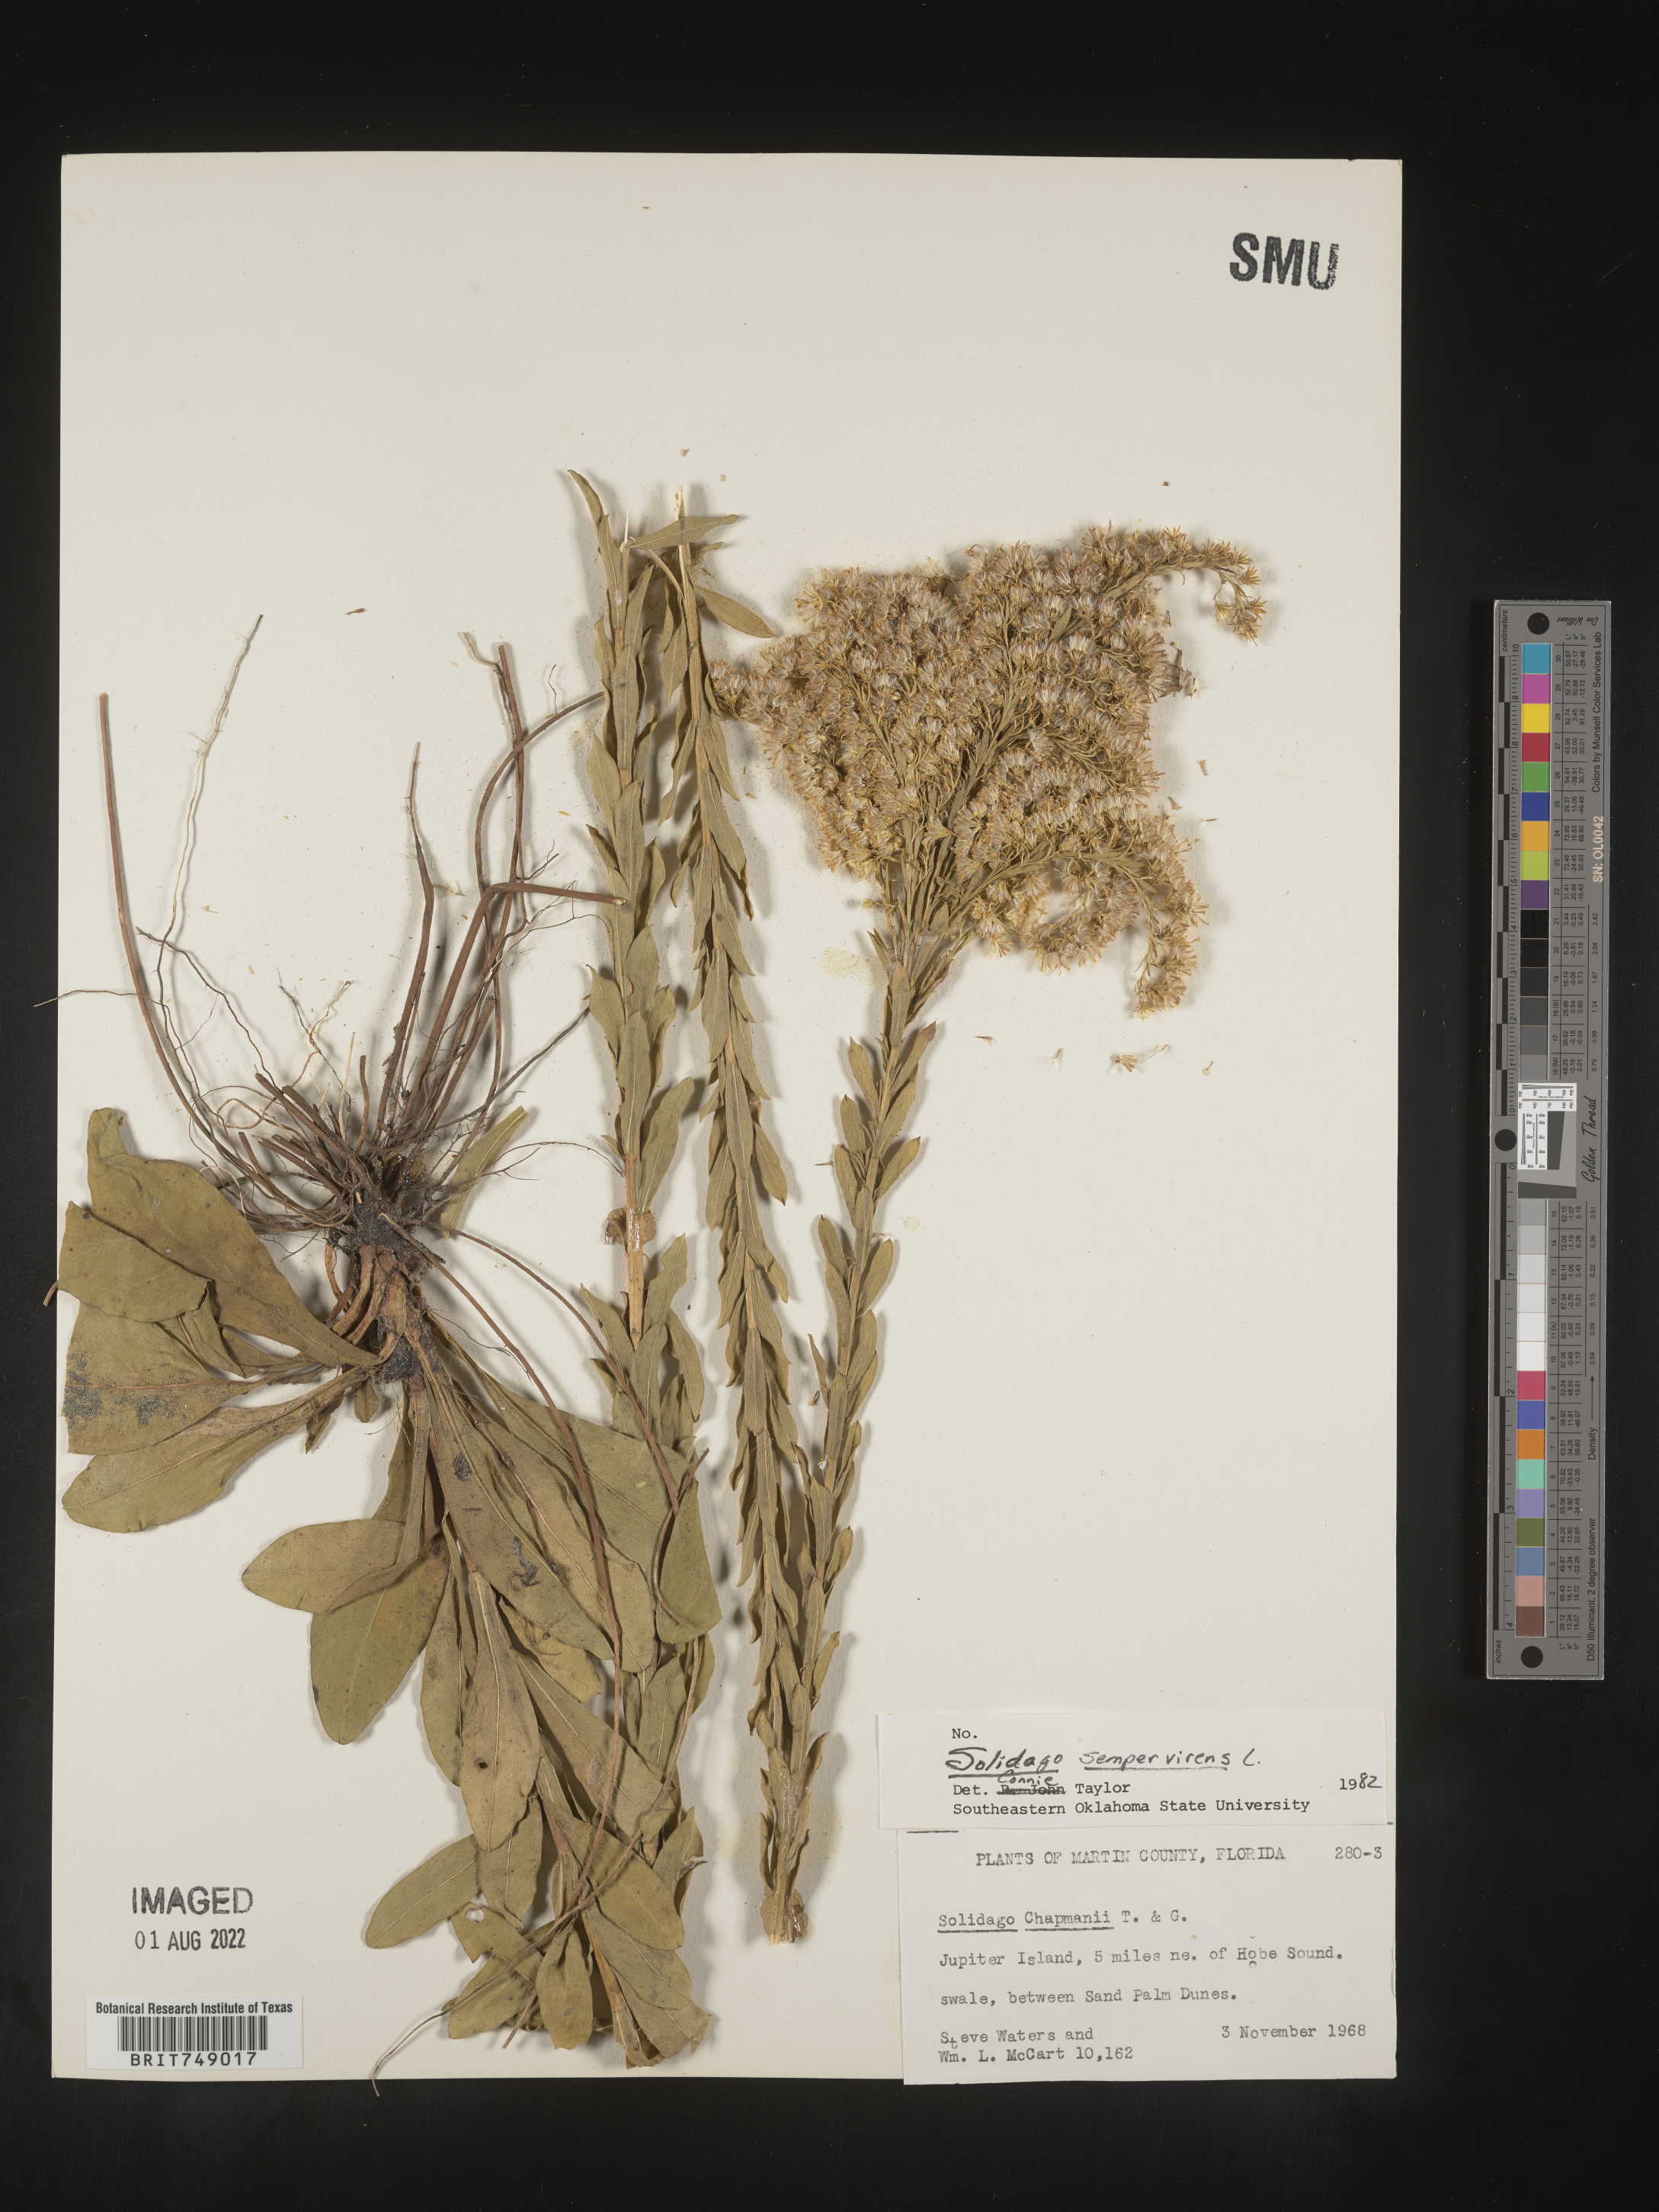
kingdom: Plantae
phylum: Tracheophyta
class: Magnoliopsida
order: Asterales
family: Asteraceae
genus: Solidago
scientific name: Solidago sempervirens
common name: Salt-marsh goldenrod
